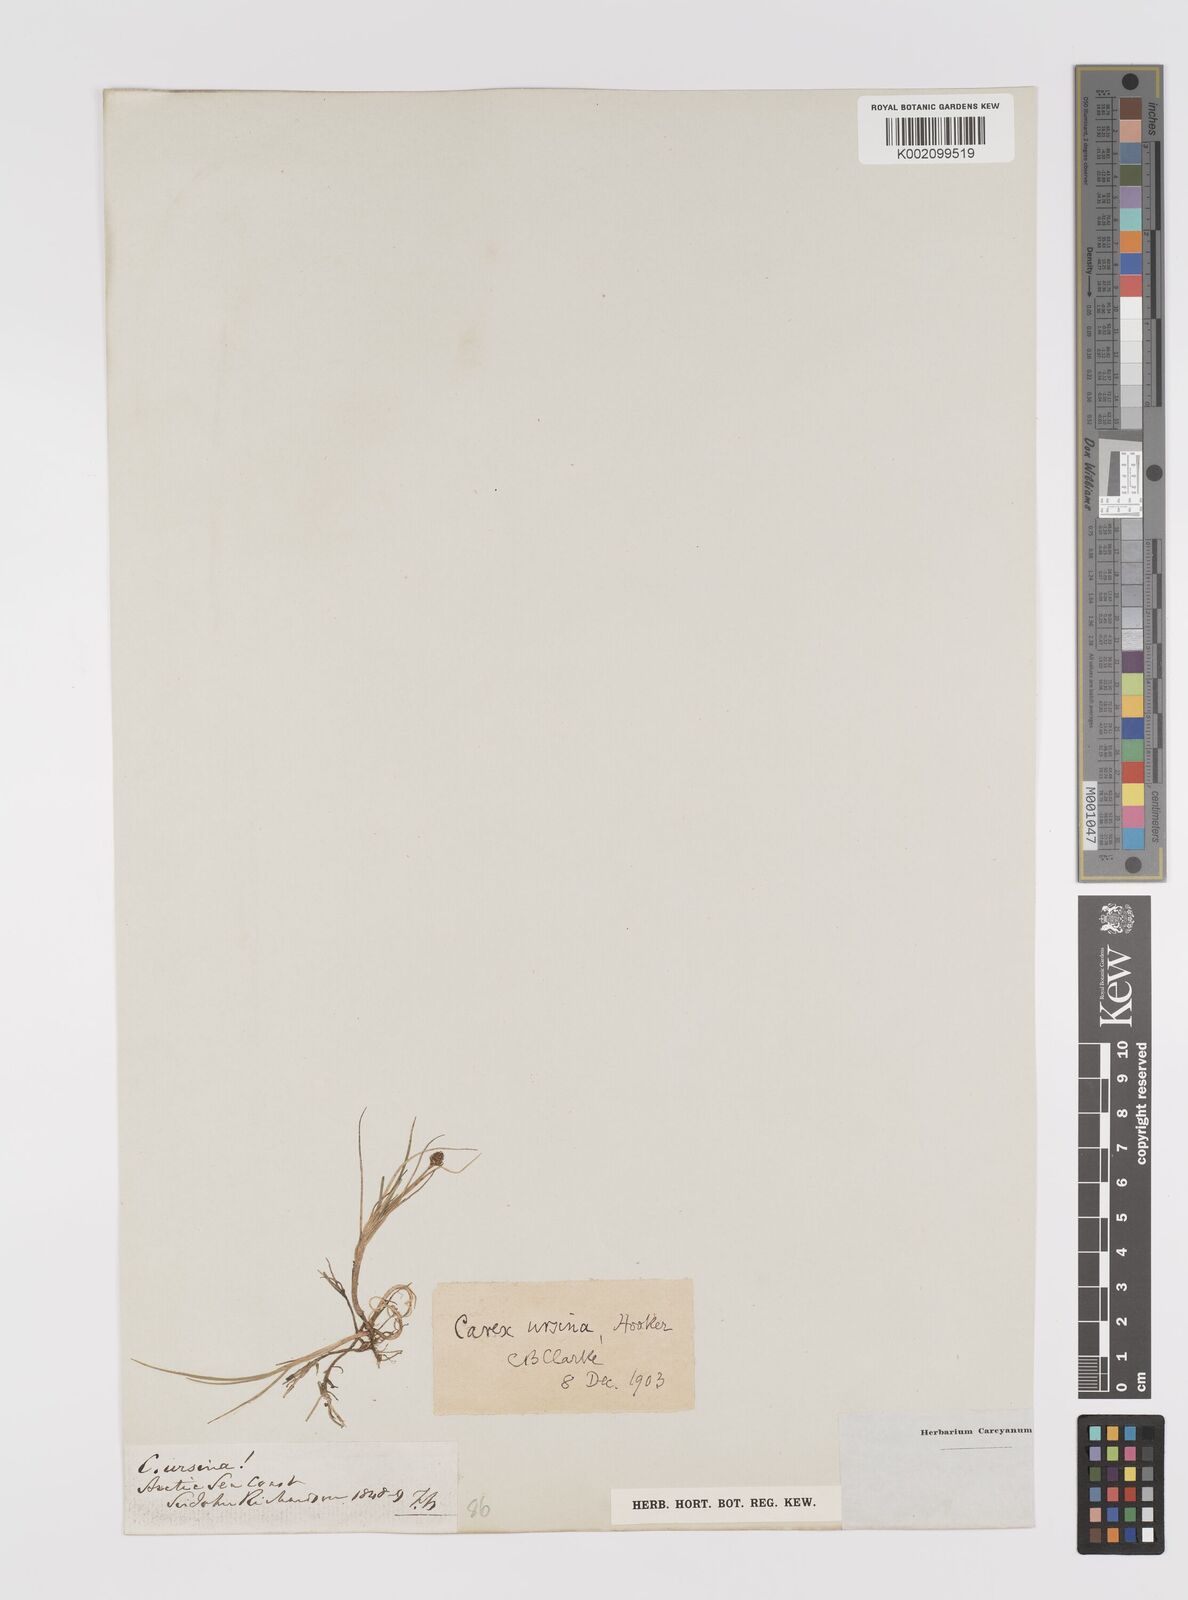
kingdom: Plantae
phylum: Tracheophyta
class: Liliopsida
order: Poales
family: Cyperaceae
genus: Carex
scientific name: Carex ursina
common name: Bear sedge
